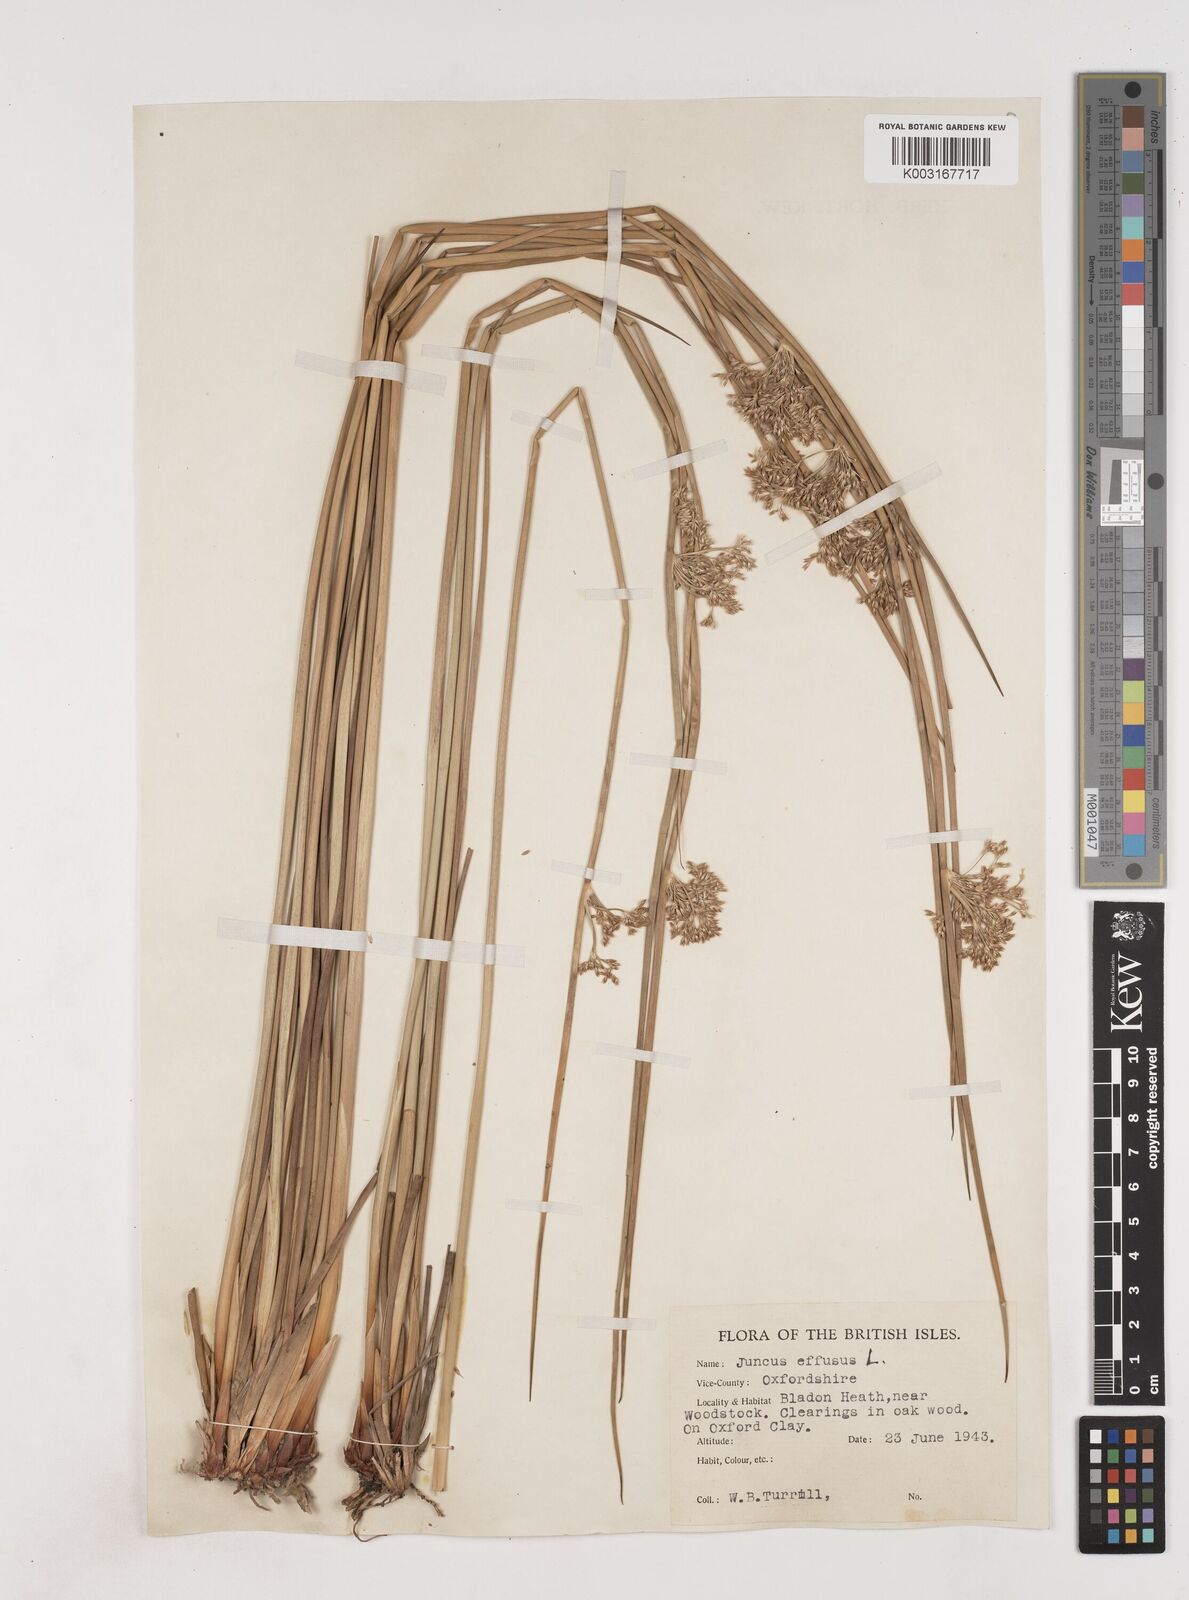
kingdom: Plantae
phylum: Tracheophyta
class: Liliopsida
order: Poales
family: Juncaceae
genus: Juncus
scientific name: Juncus effusus
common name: Soft rush
